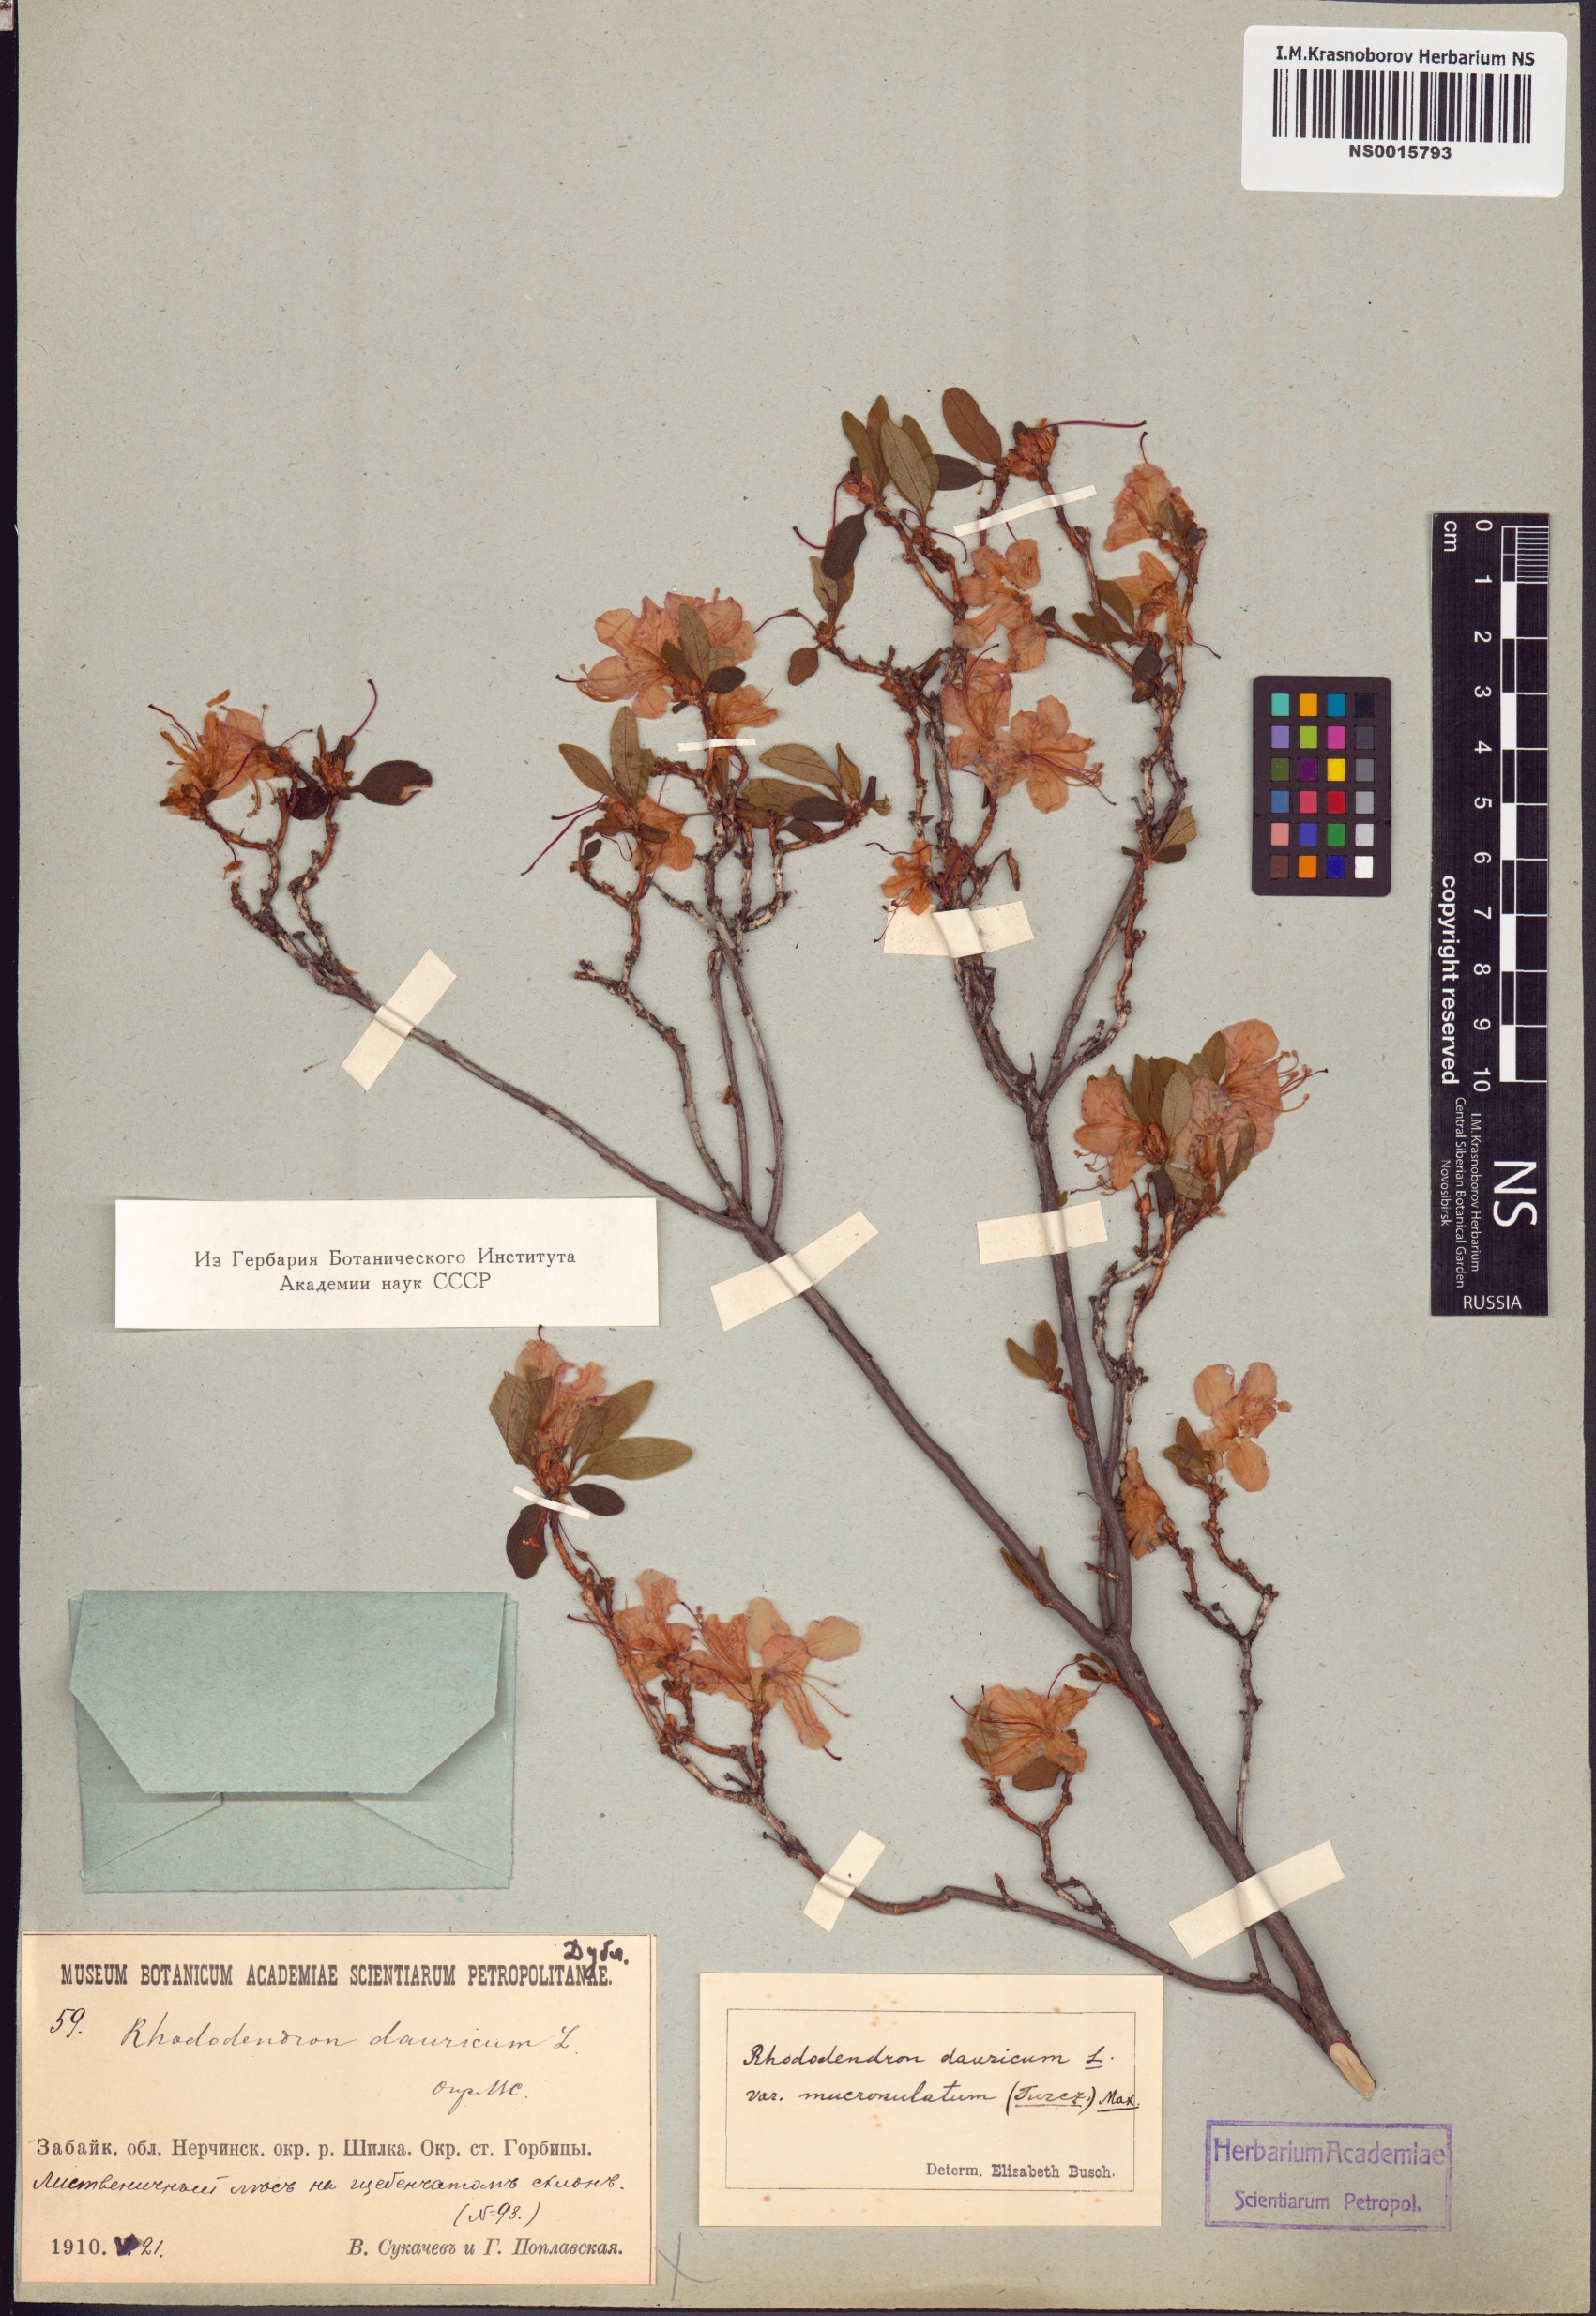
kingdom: Plantae
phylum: Tracheophyta
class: Magnoliopsida
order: Ericales
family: Ericaceae
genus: Rhododendron
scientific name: Rhododendron dauricum
